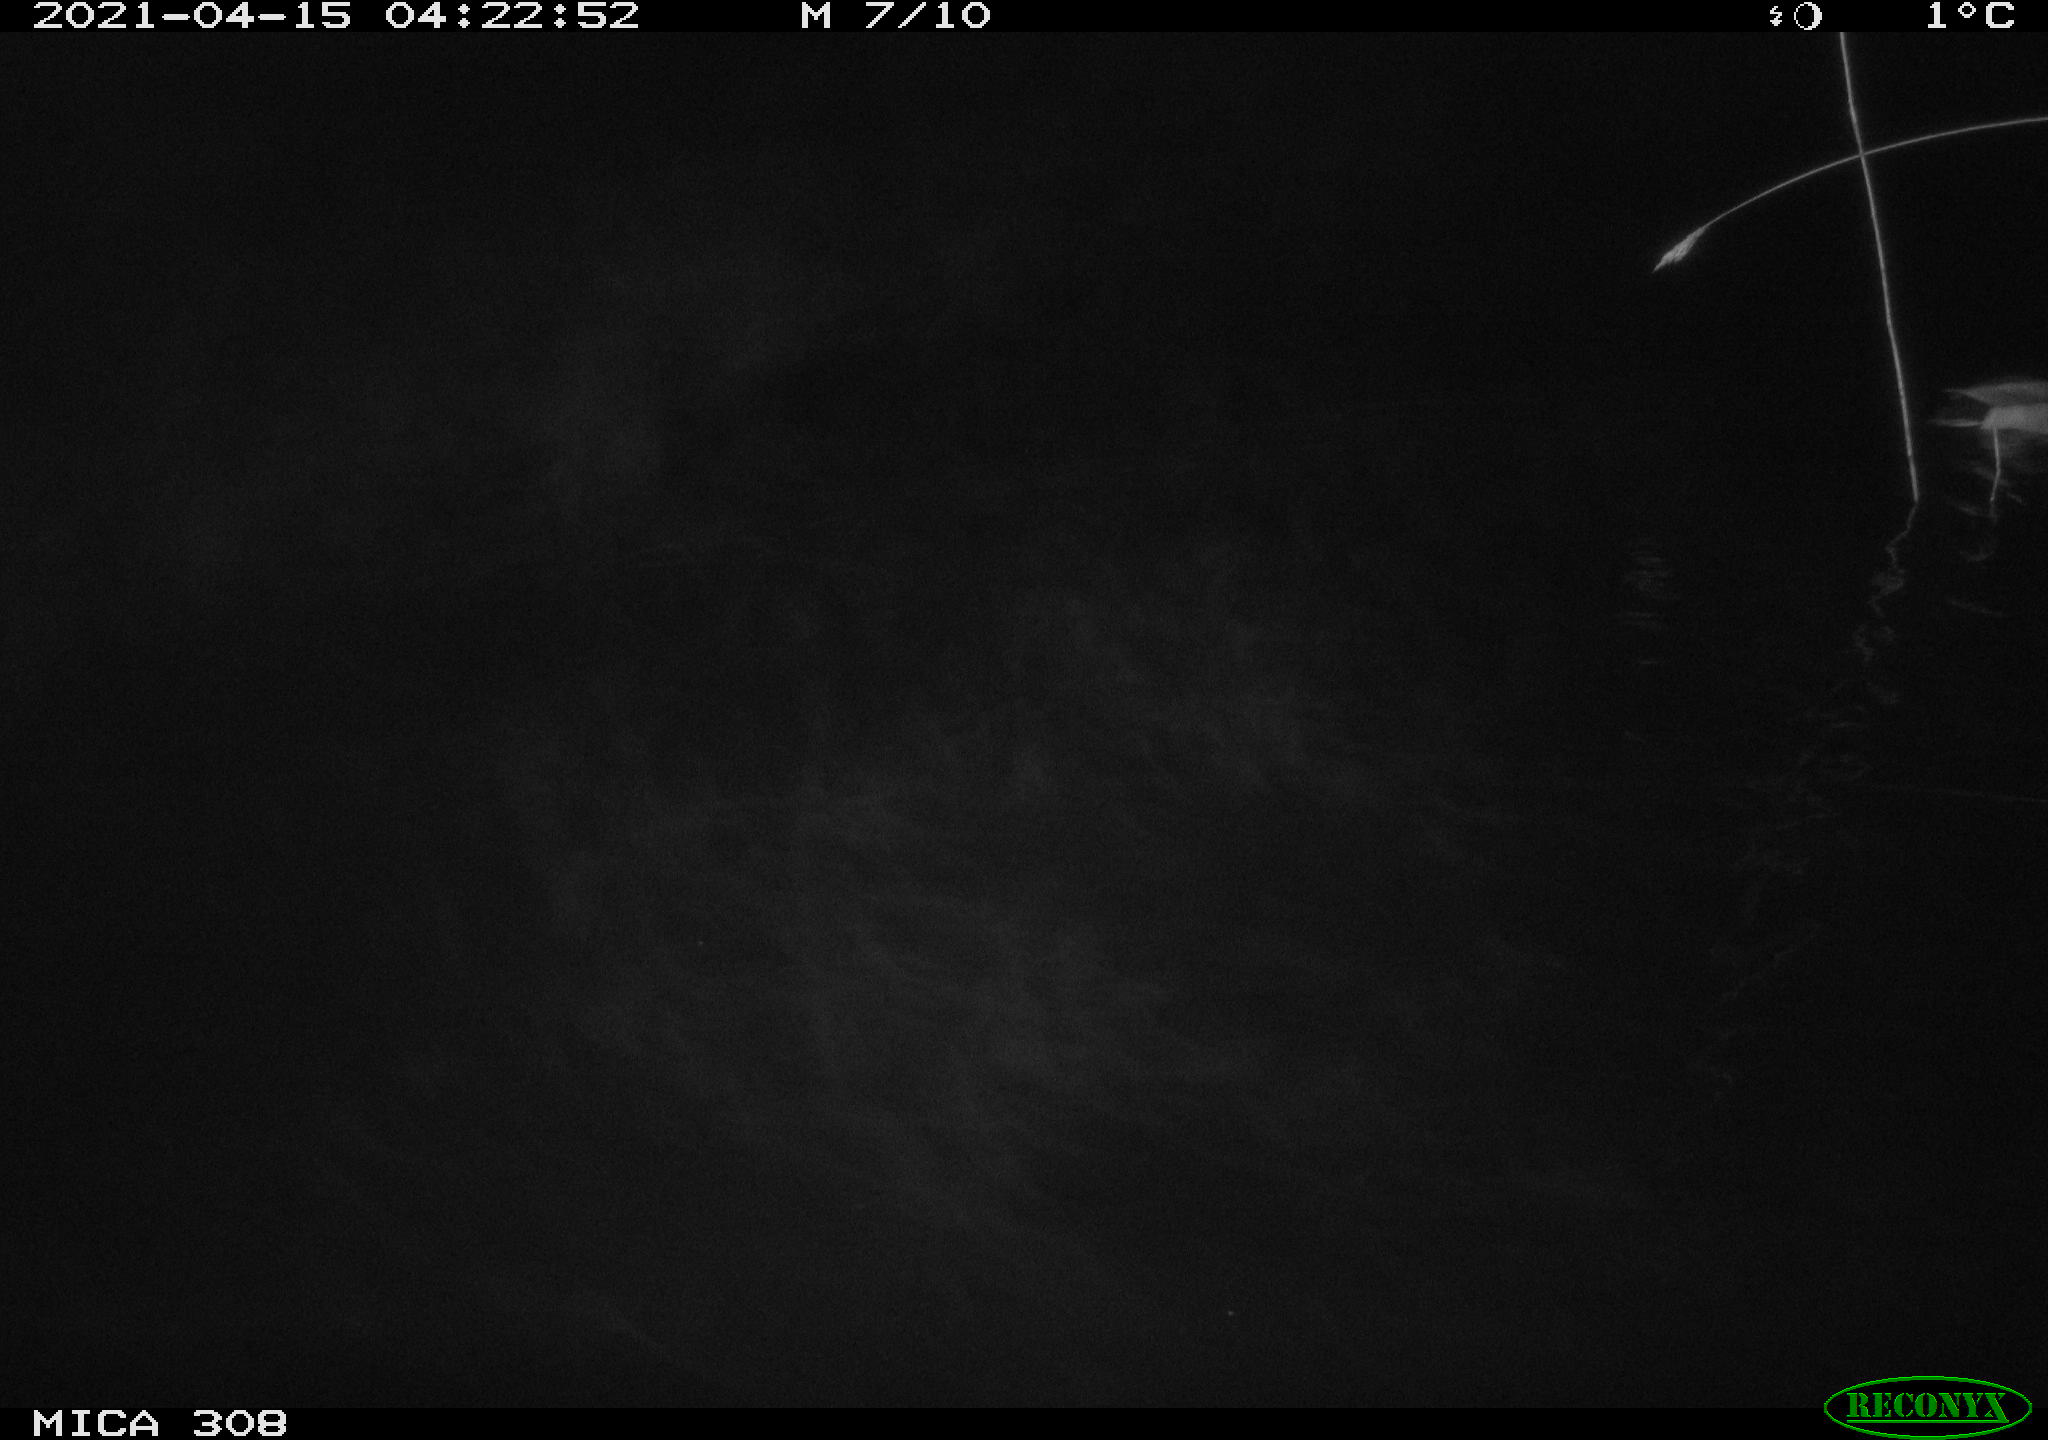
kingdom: Animalia
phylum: Chordata
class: Aves
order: Anseriformes
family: Anatidae
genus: Anas
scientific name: Anas platyrhynchos
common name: Mallard
